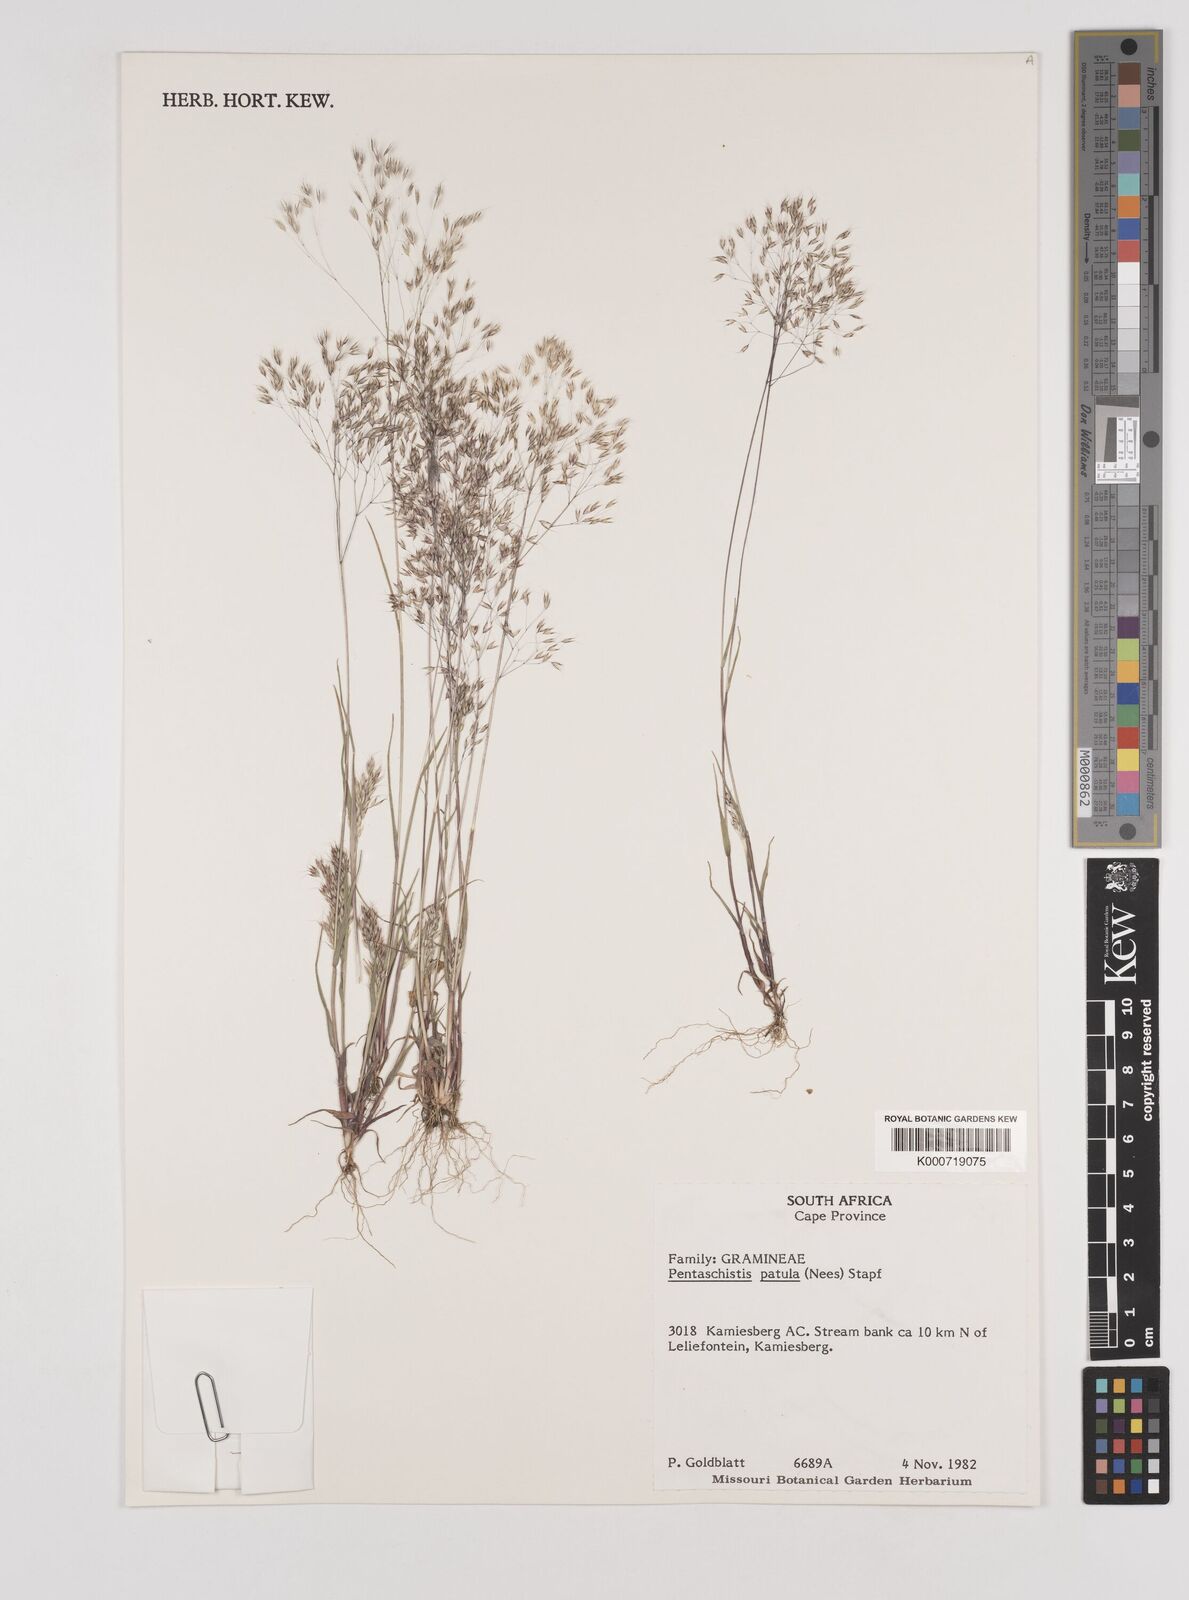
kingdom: Plantae
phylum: Tracheophyta
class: Liliopsida
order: Poales
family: Poaceae
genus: Pentameris
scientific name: Pentameris patula
